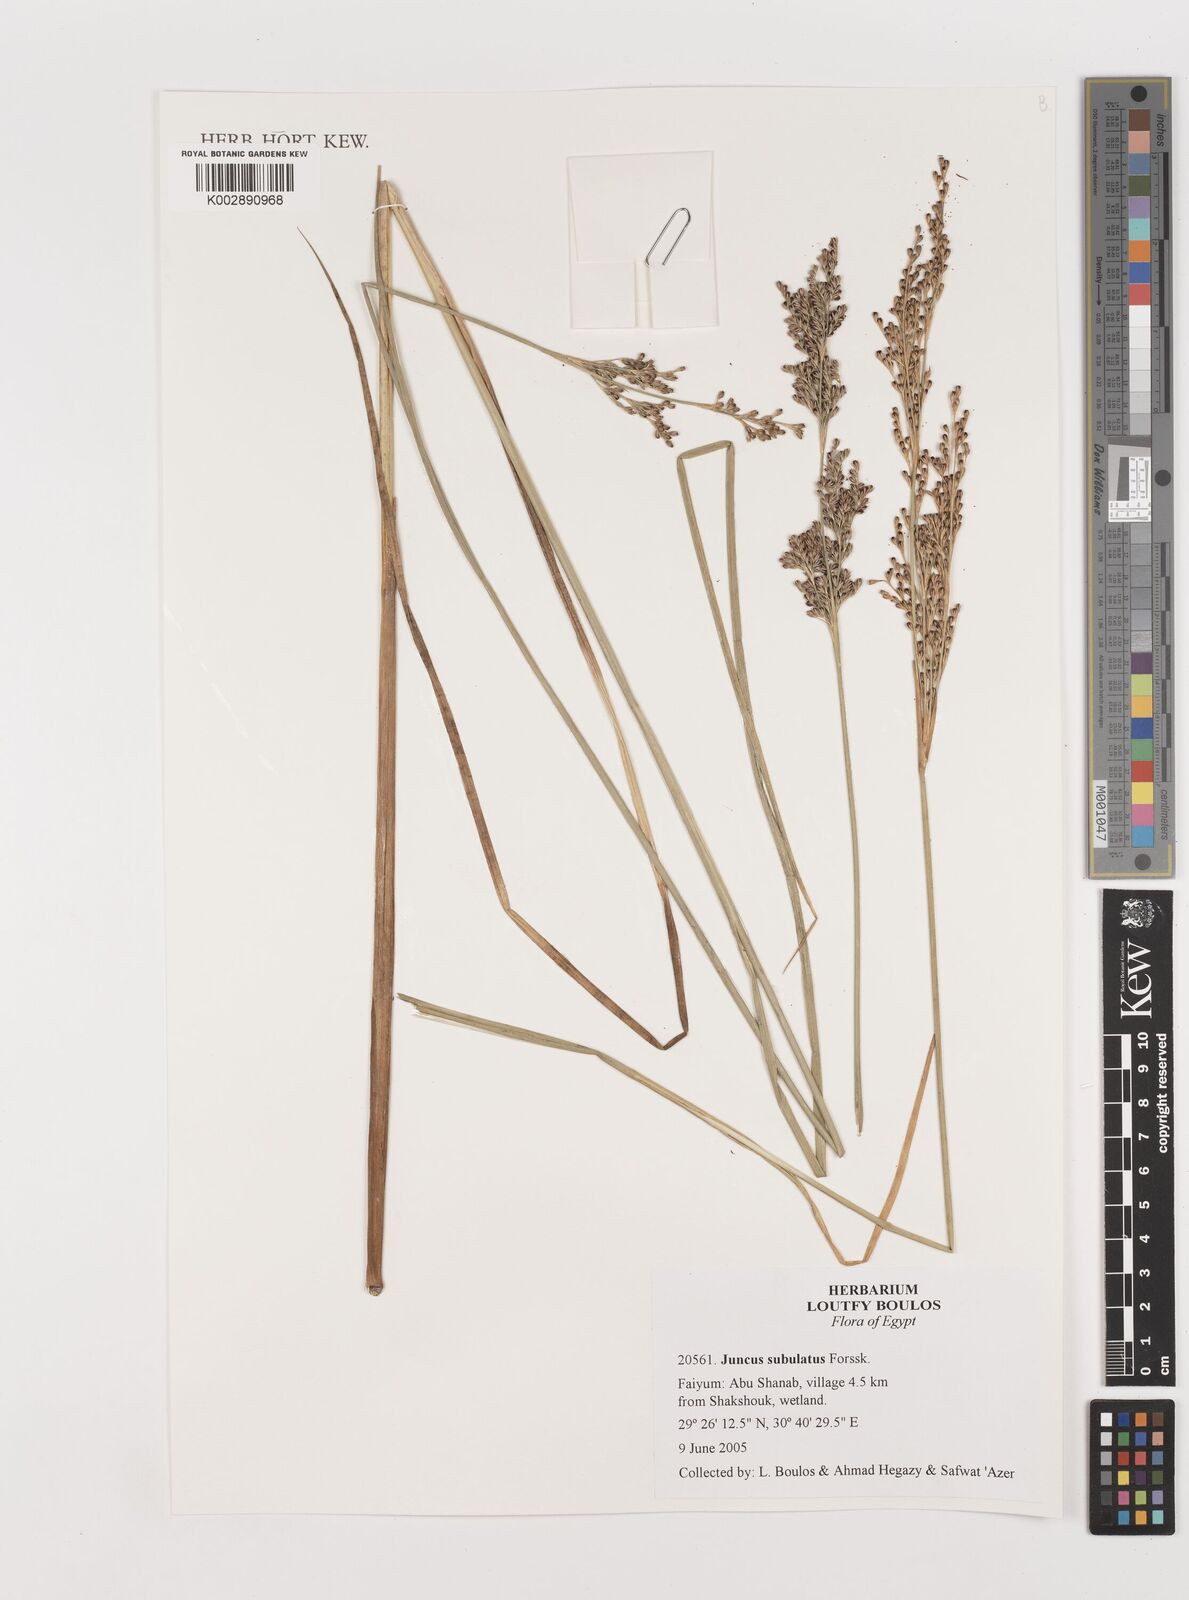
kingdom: Plantae
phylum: Tracheophyta
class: Liliopsida
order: Poales
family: Juncaceae
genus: Juncus
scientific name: Juncus subulatus
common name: Somerset rush
